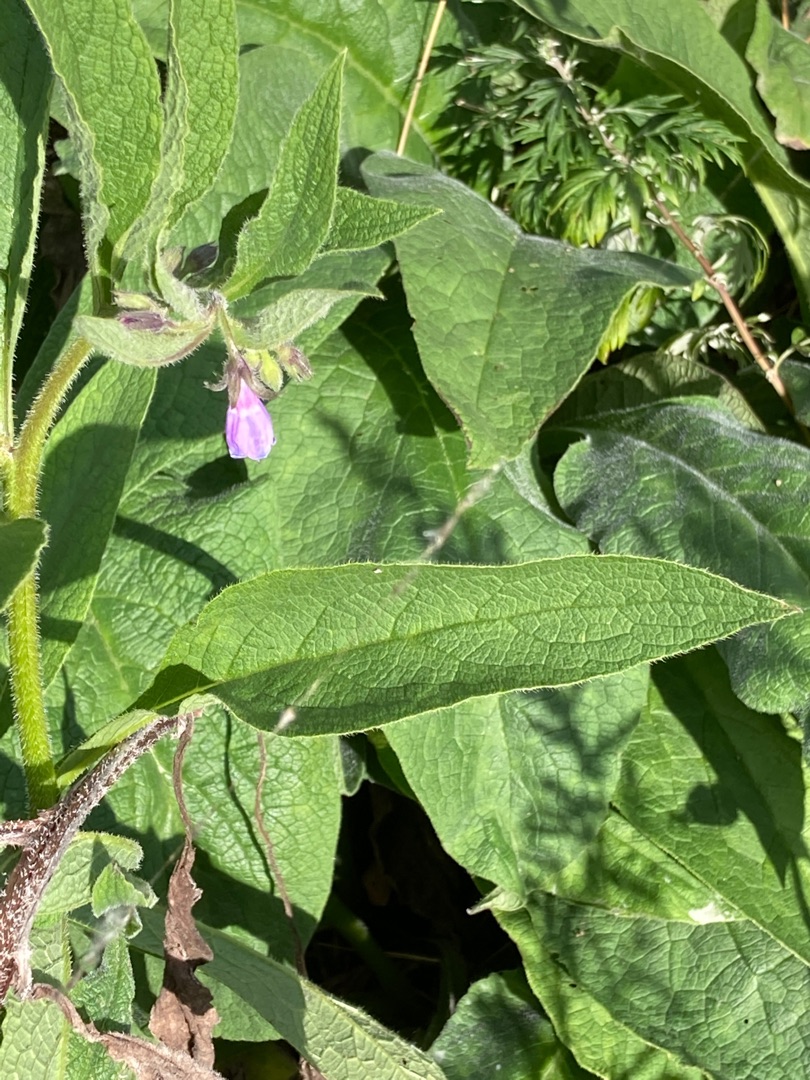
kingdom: Plantae
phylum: Tracheophyta
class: Magnoliopsida
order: Boraginales
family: Boraginaceae
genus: Symphytum
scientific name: Symphytum uplandicum
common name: Foder-kulsukker
